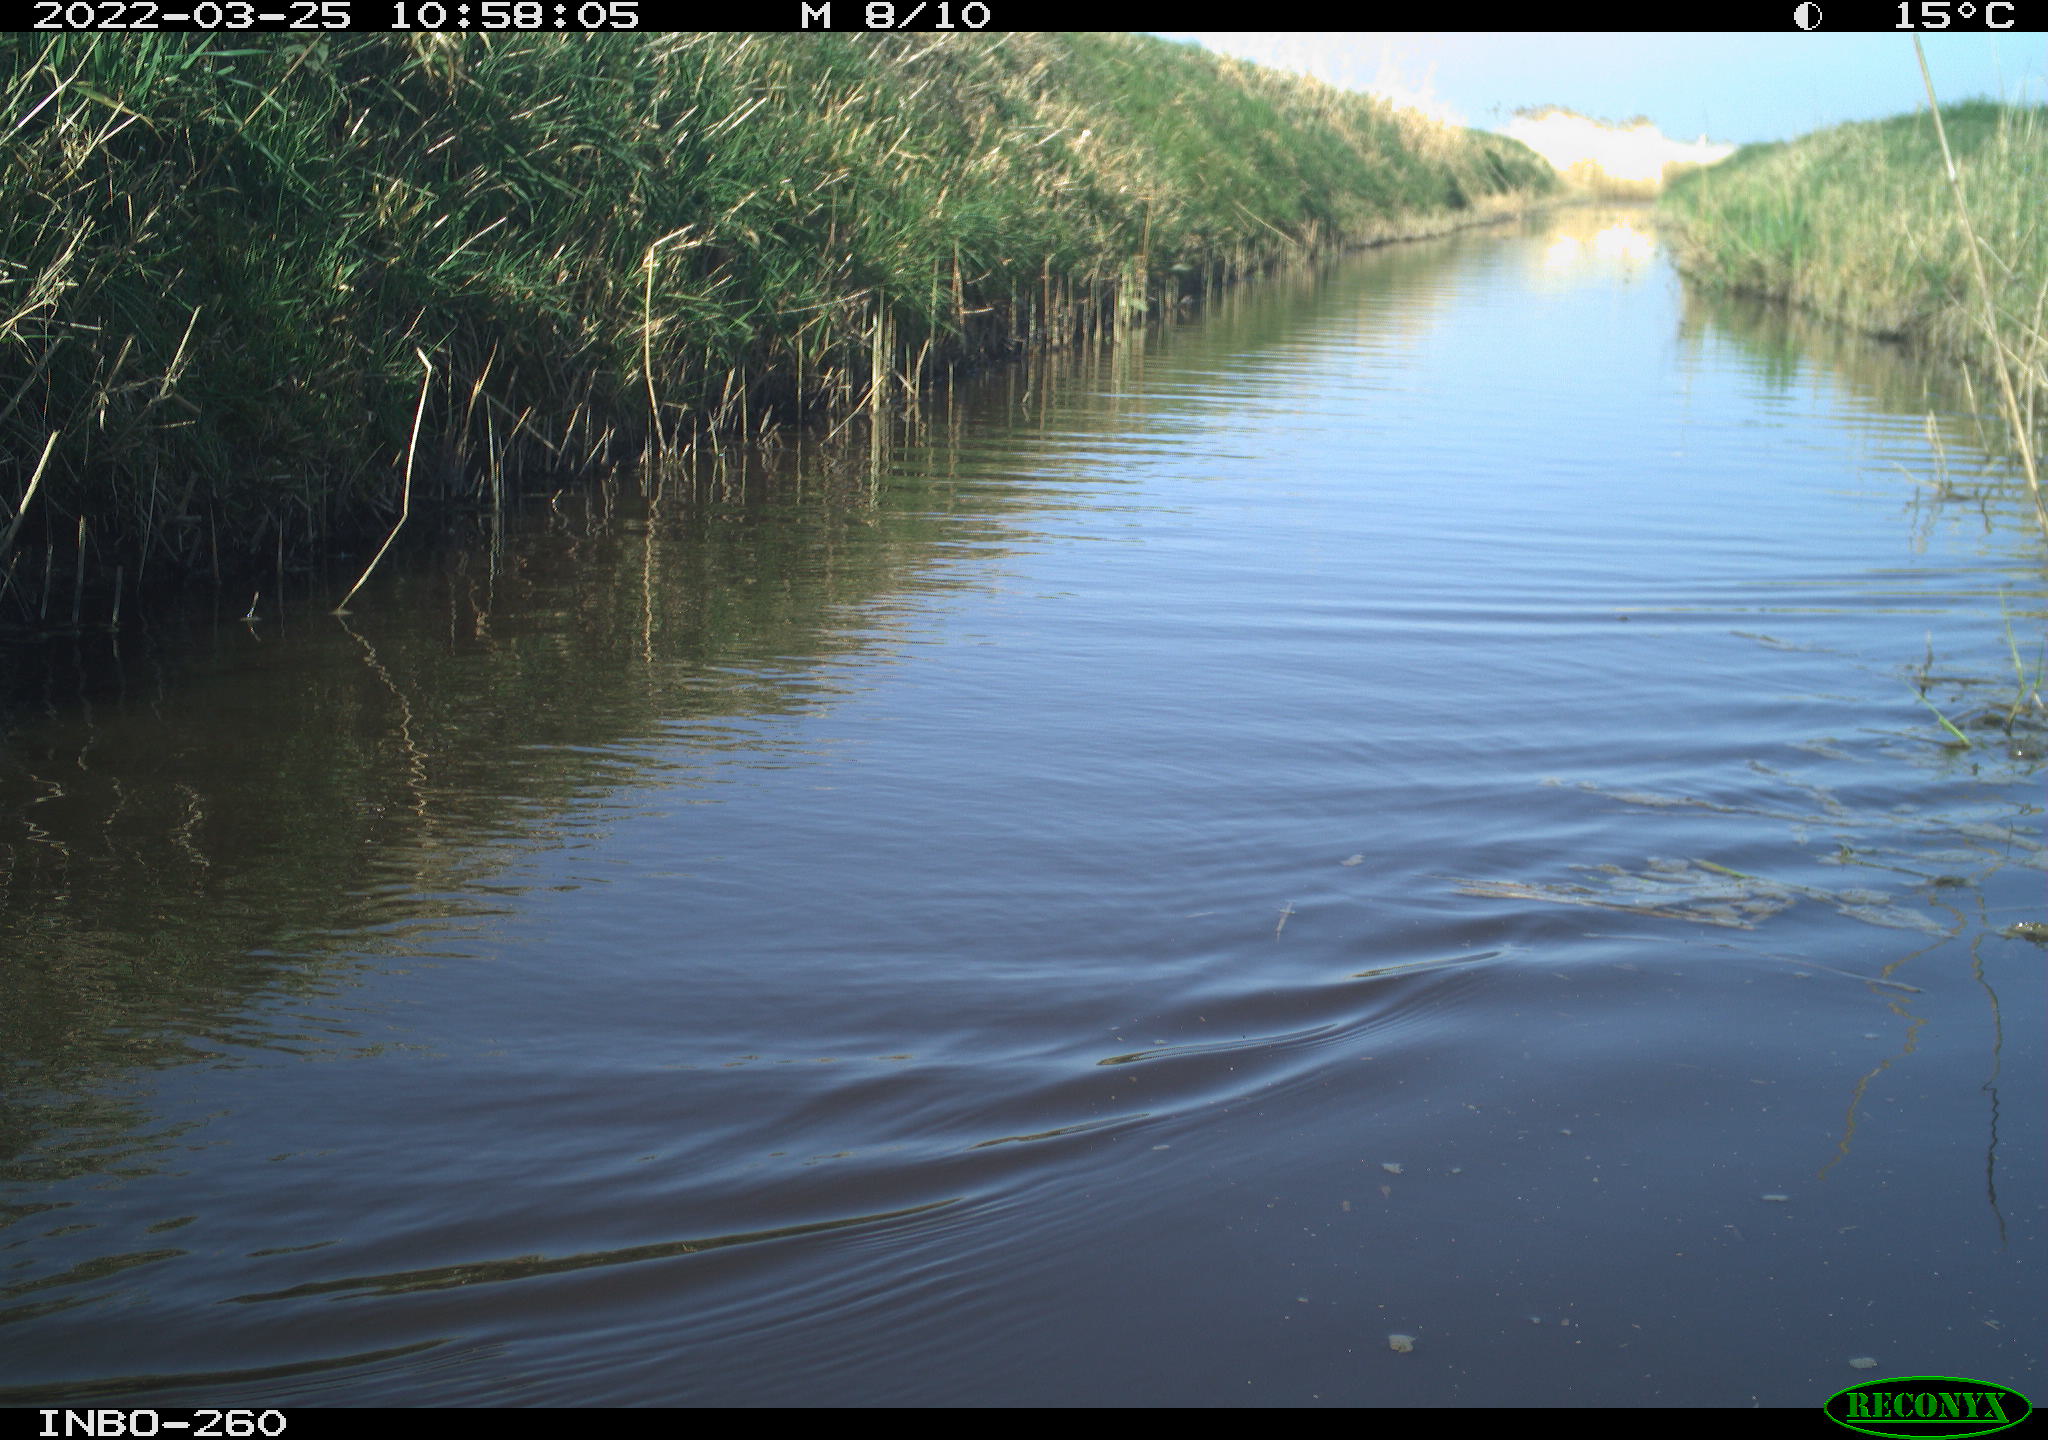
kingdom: Animalia
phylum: Chordata
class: Aves
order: Gruiformes
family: Rallidae
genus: Fulica
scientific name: Fulica atra
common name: Eurasian coot
